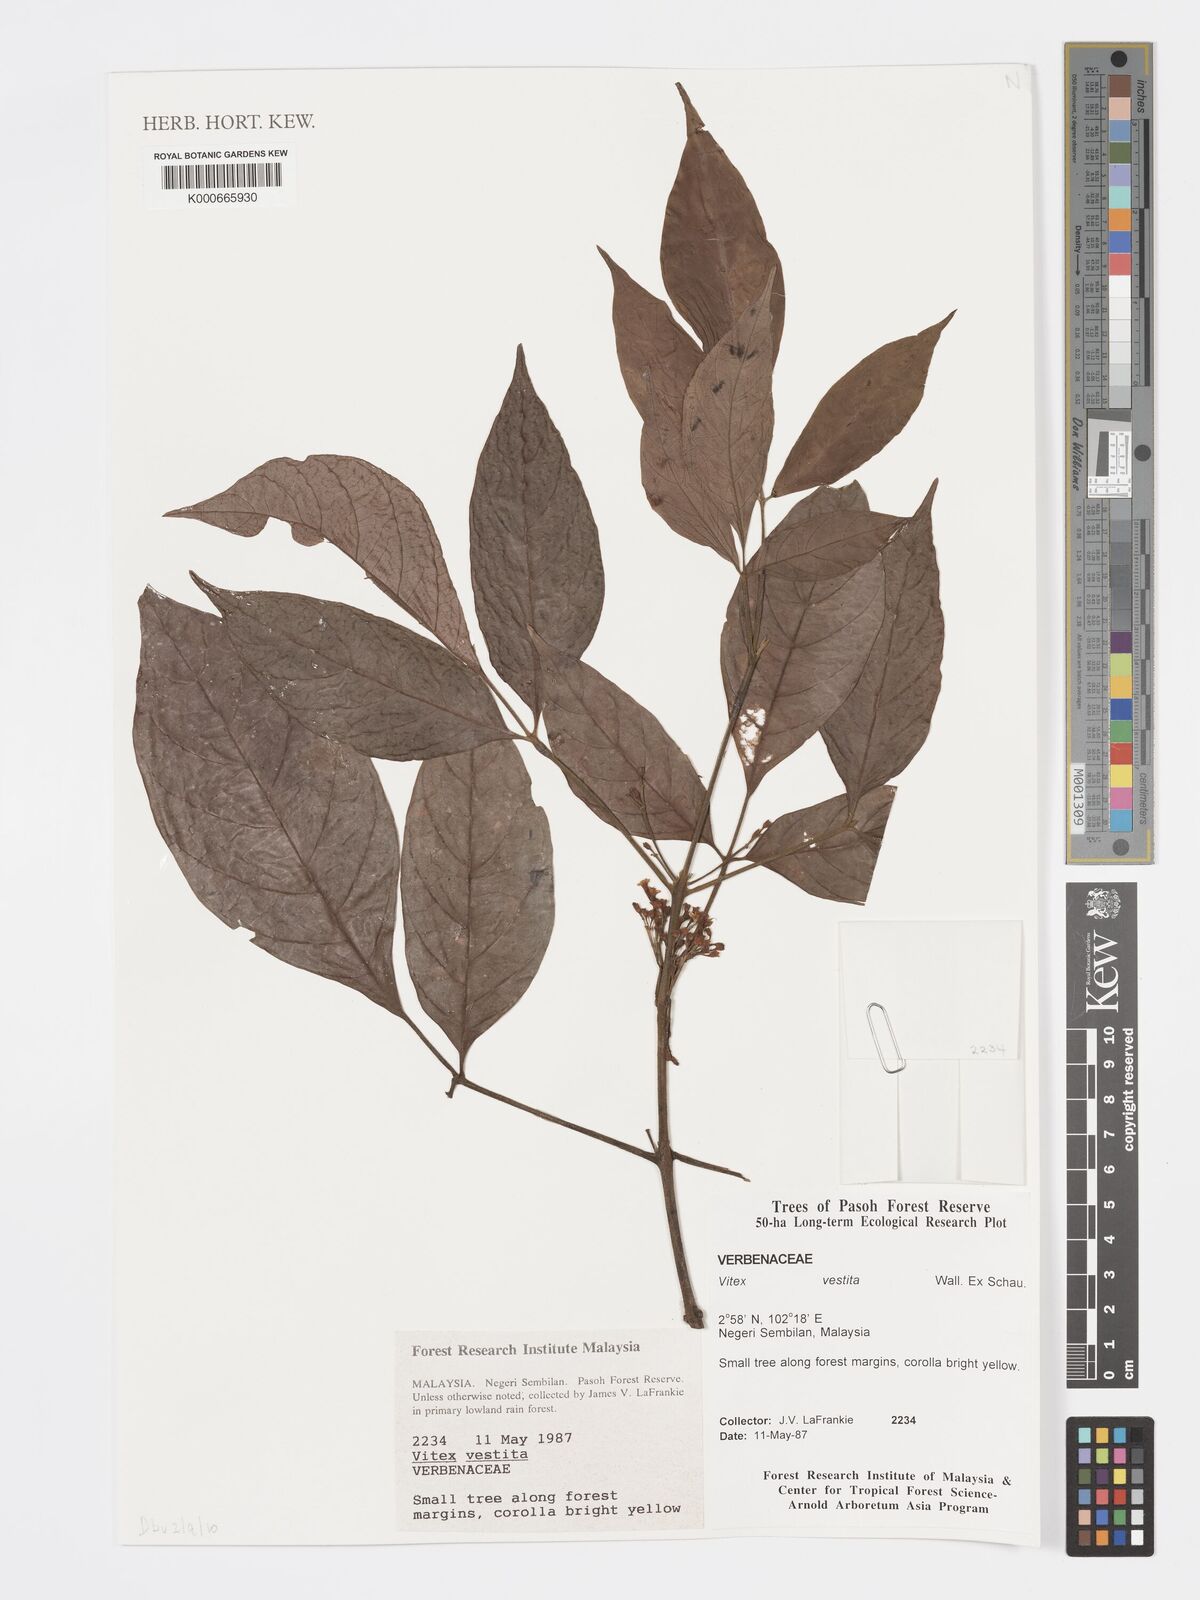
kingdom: Plantae
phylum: Tracheophyta
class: Magnoliopsida
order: Lamiales
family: Lamiaceae
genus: Vitex
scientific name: Vitex vestita
